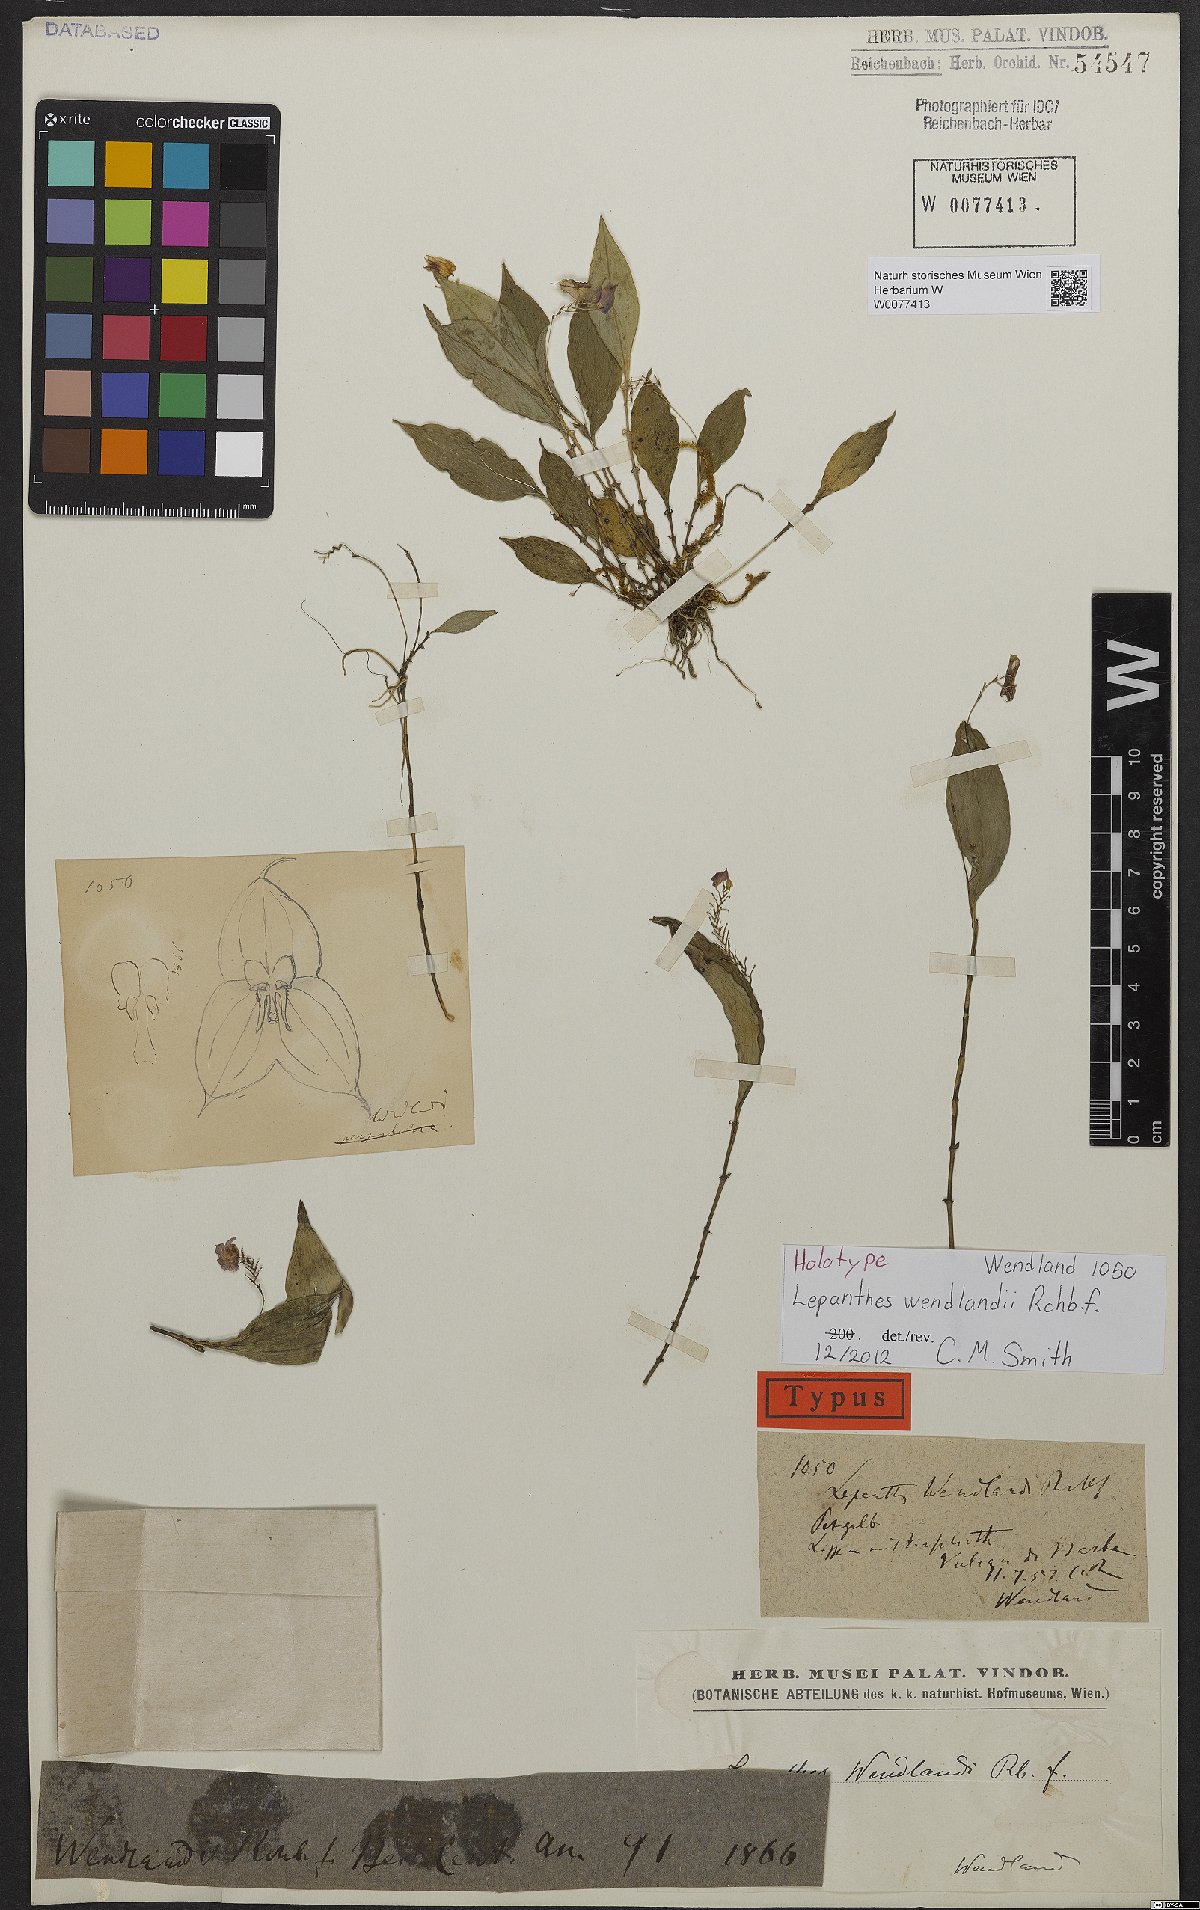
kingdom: Plantae
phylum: Tracheophyta
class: Liliopsida
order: Asparagales
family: Orchidaceae
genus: Lepanthes
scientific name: Lepanthes wendlandii
